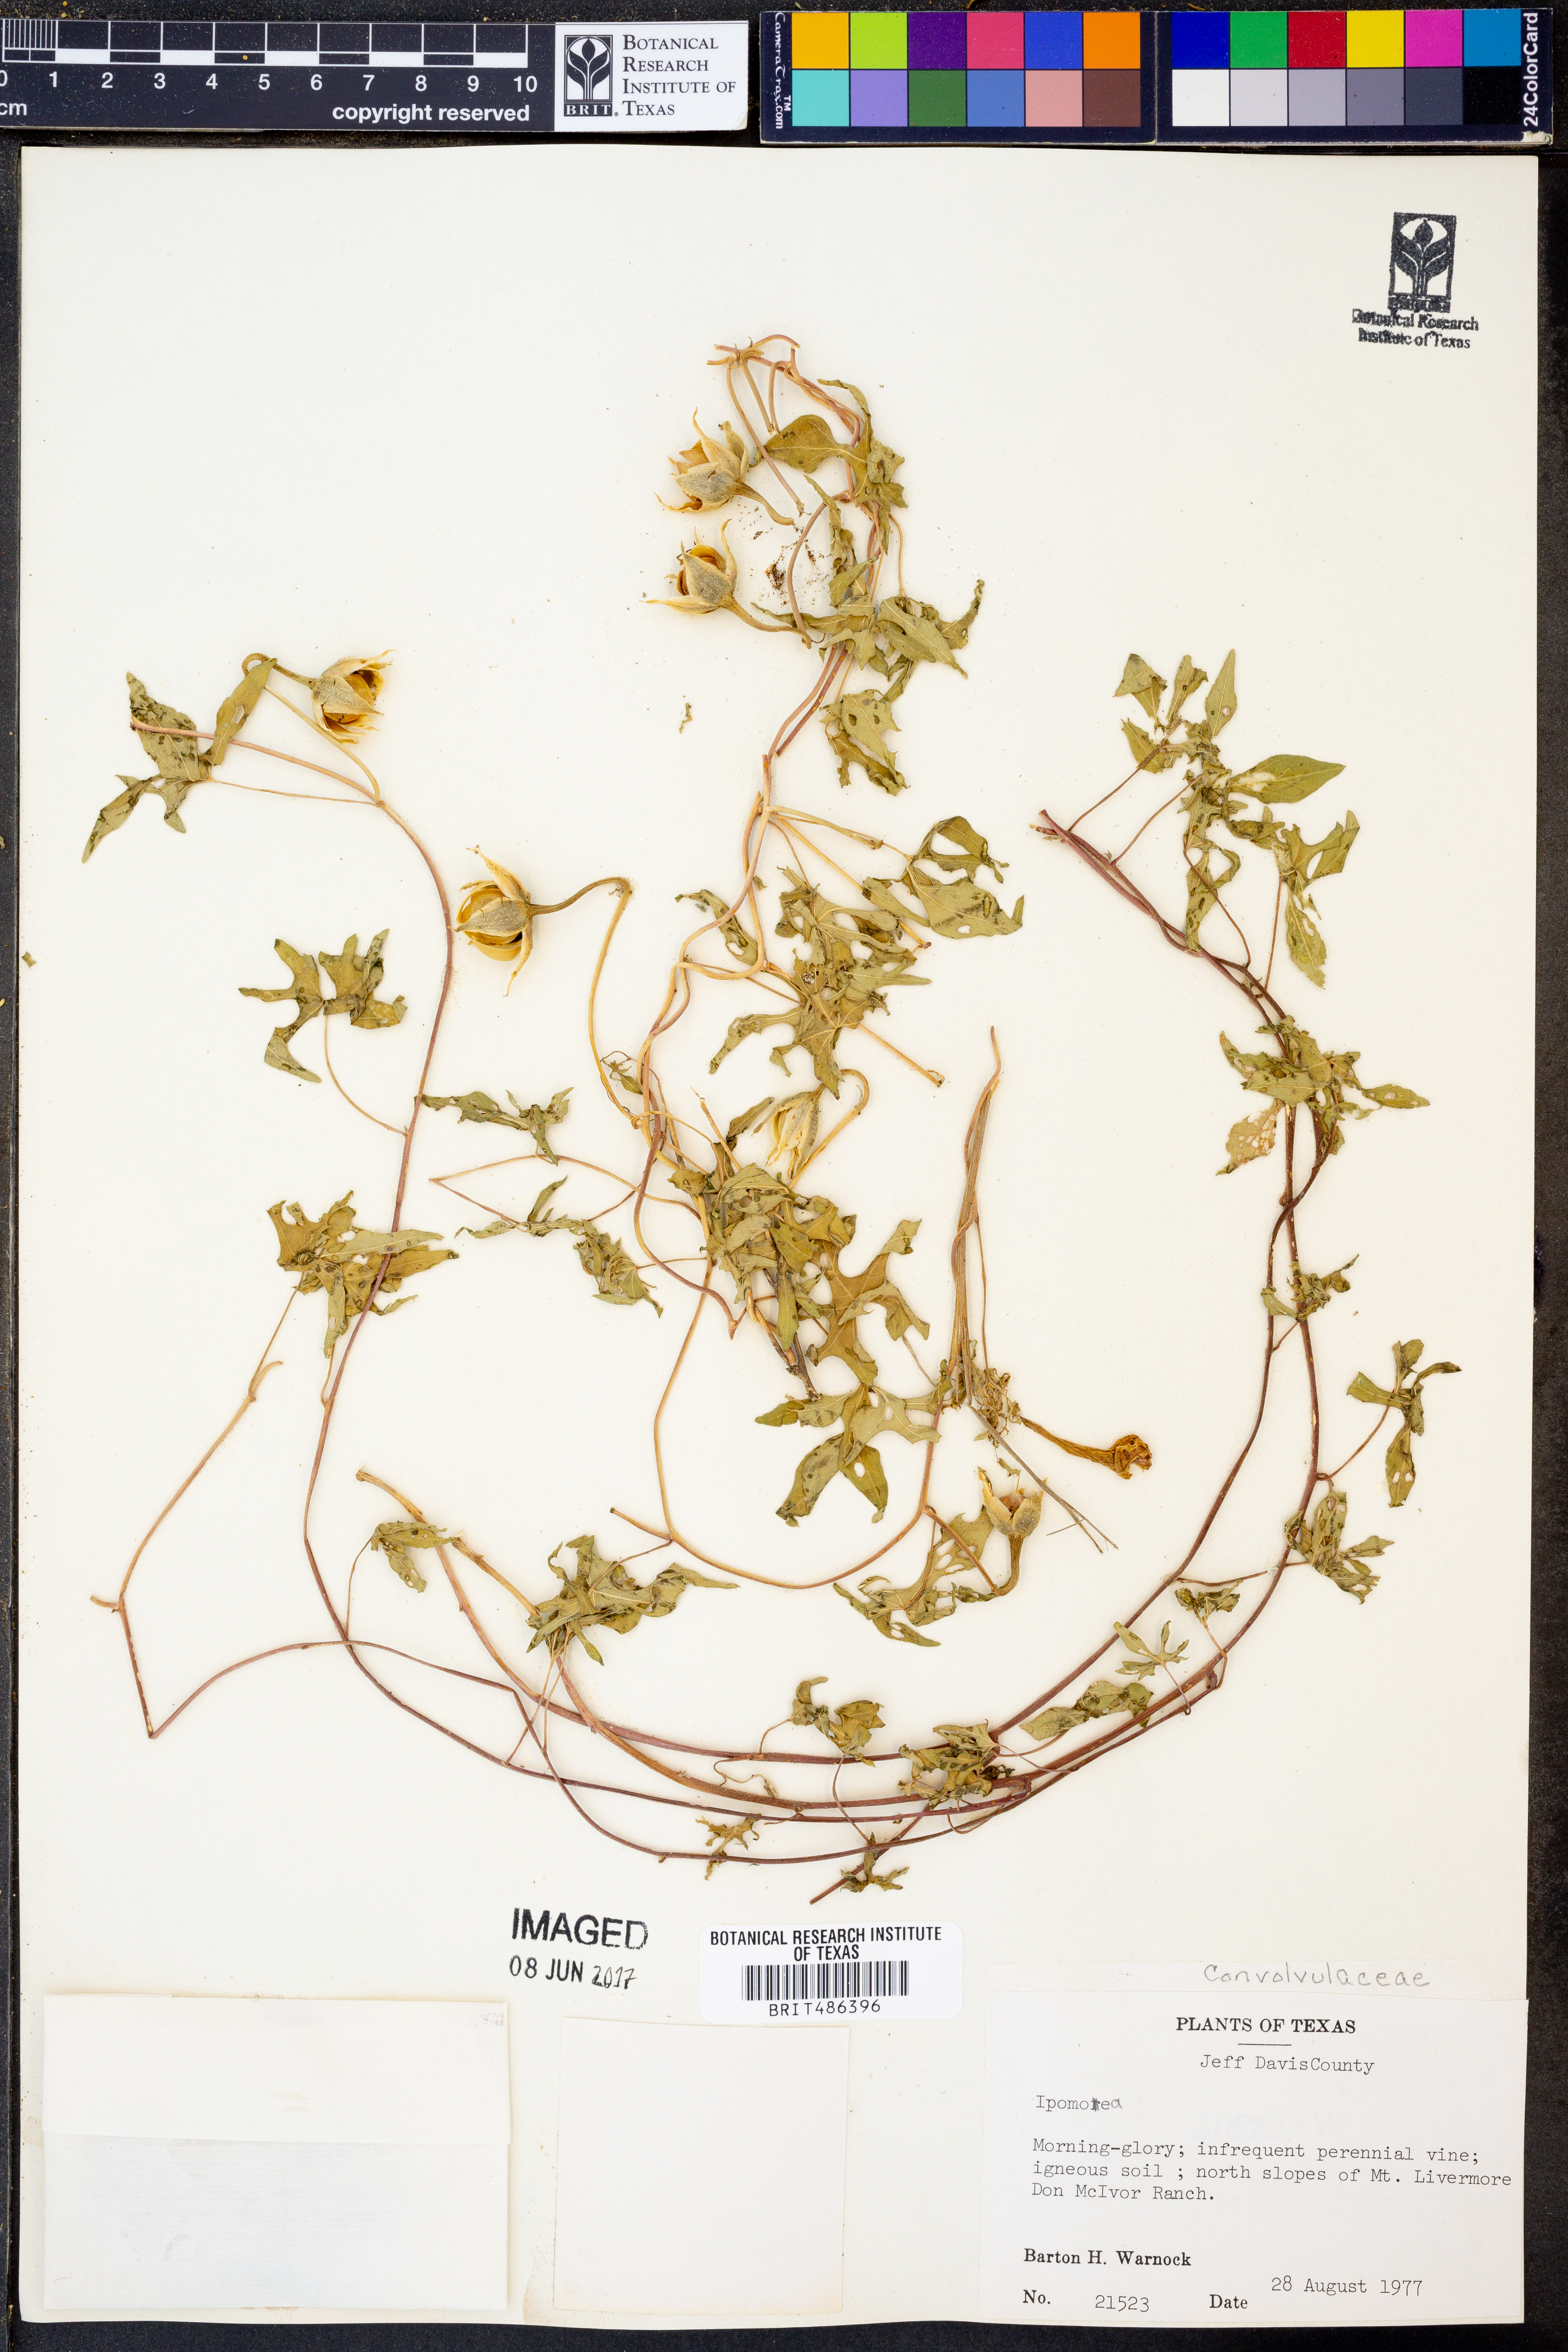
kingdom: Plantae
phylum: Tracheophyta
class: Magnoliopsida
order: Solanales
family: Convolvulaceae
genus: Ipomoea
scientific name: Ipomoea
